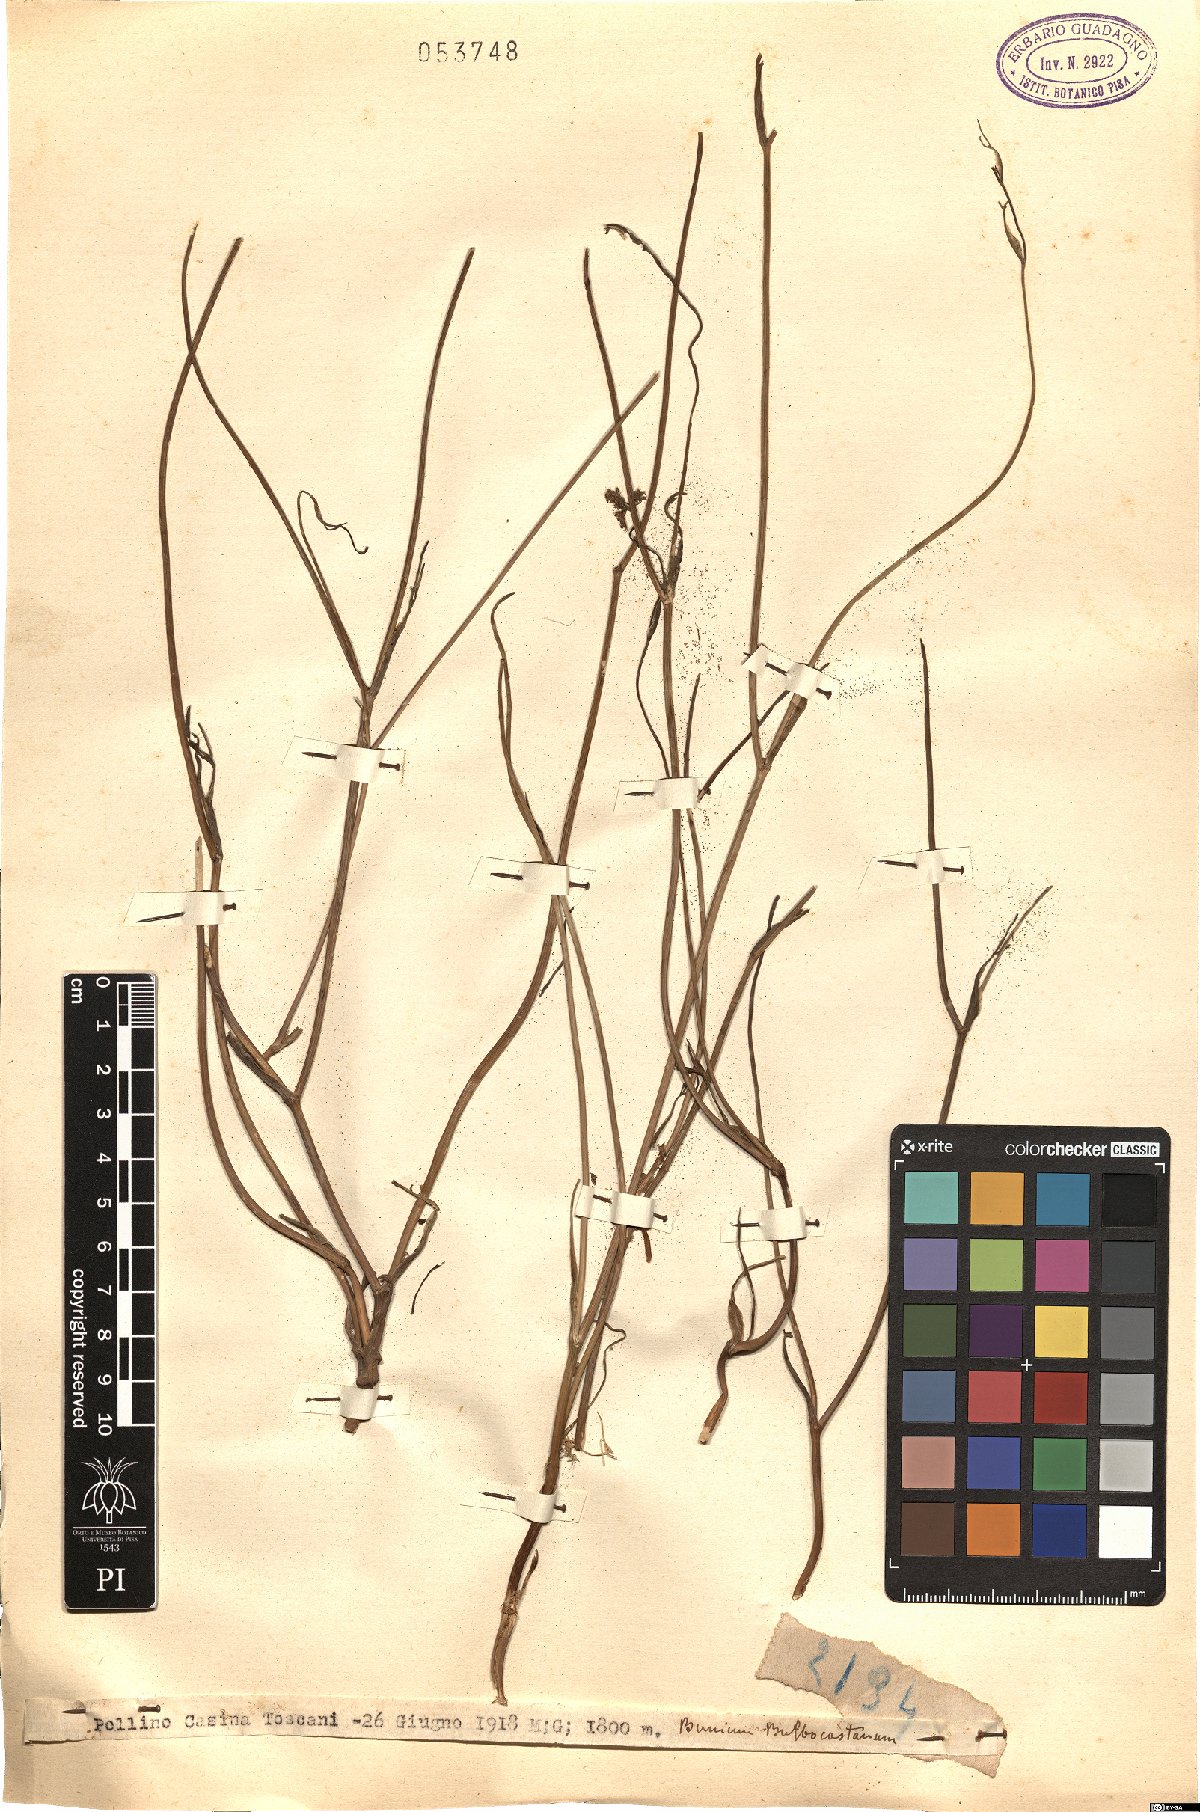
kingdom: Plantae
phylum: Tracheophyta
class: Magnoliopsida
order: Apiales
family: Apiaceae
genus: Bunium
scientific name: Bunium bulbocastanum
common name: Great pignut
